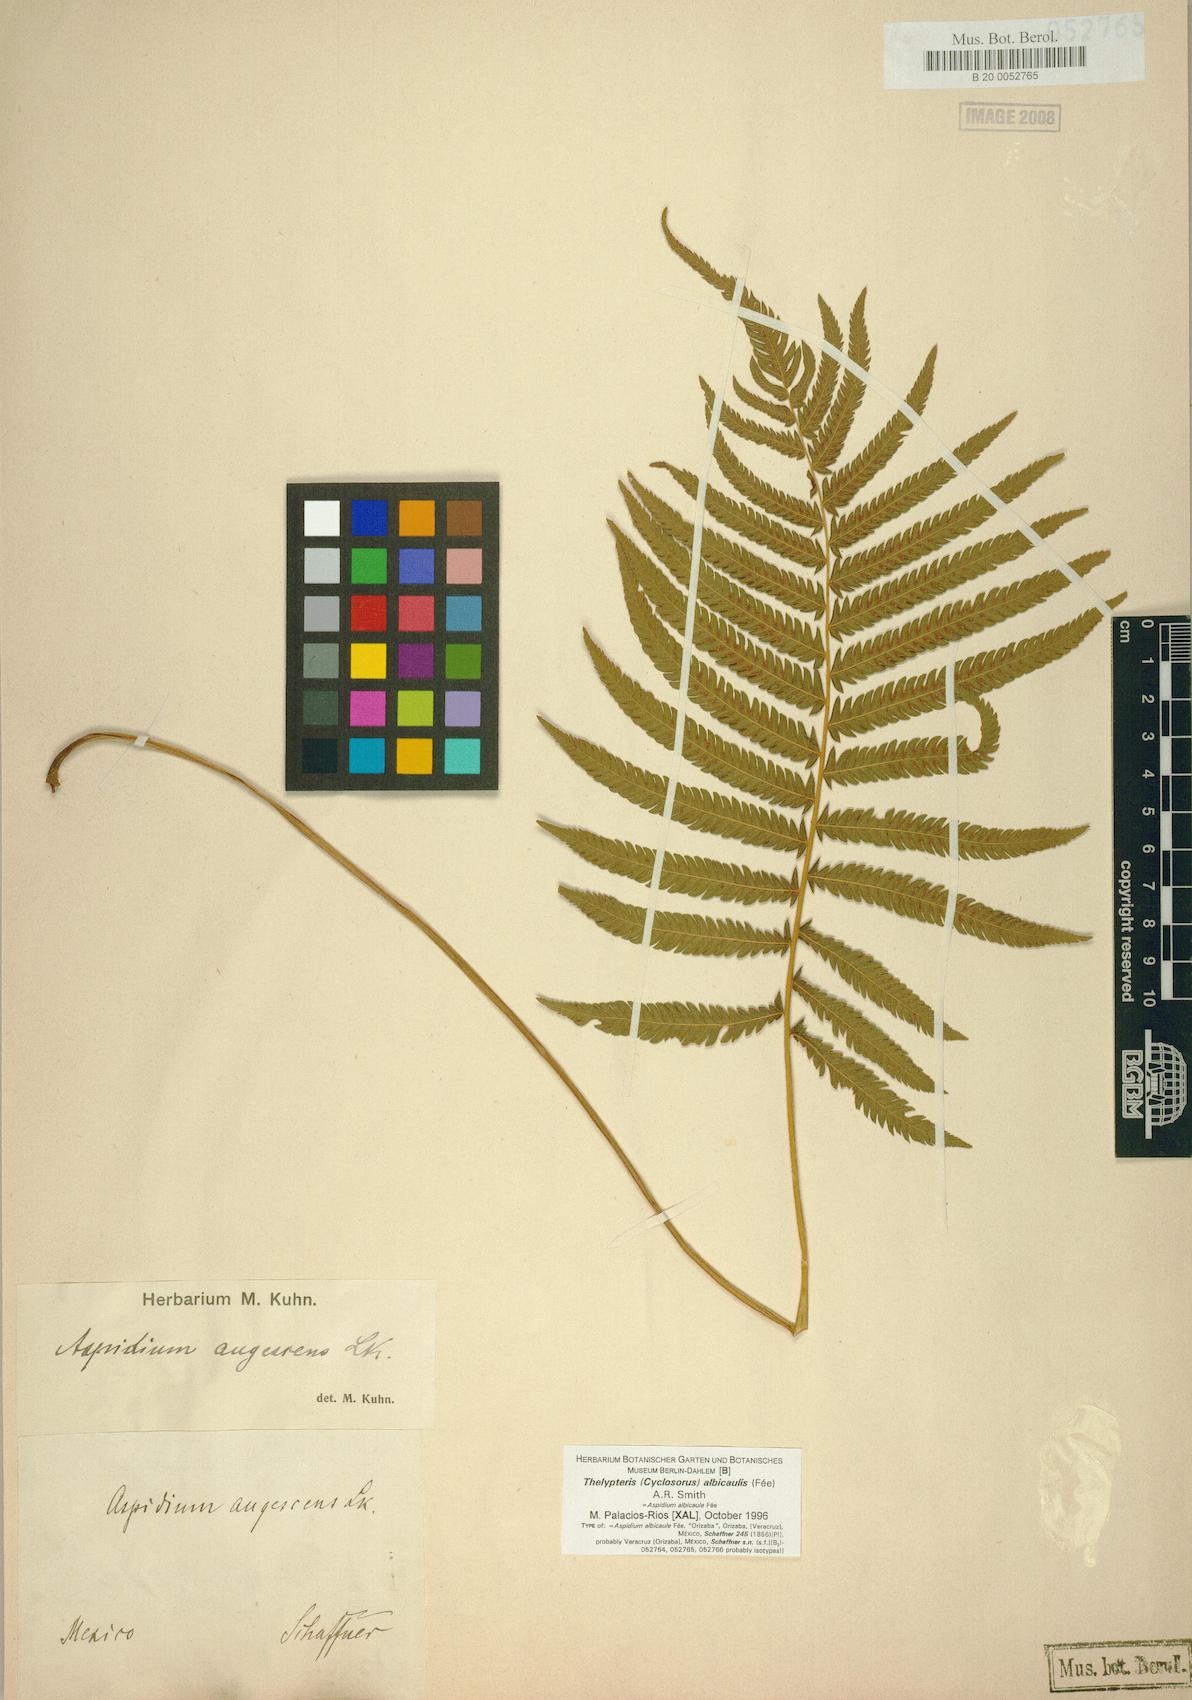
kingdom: Plantae
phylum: Tracheophyta
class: Polypodiopsida
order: Polypodiales
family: Thelypteridaceae
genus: Pelazoneuron
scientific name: Pelazoneuron albicaule
